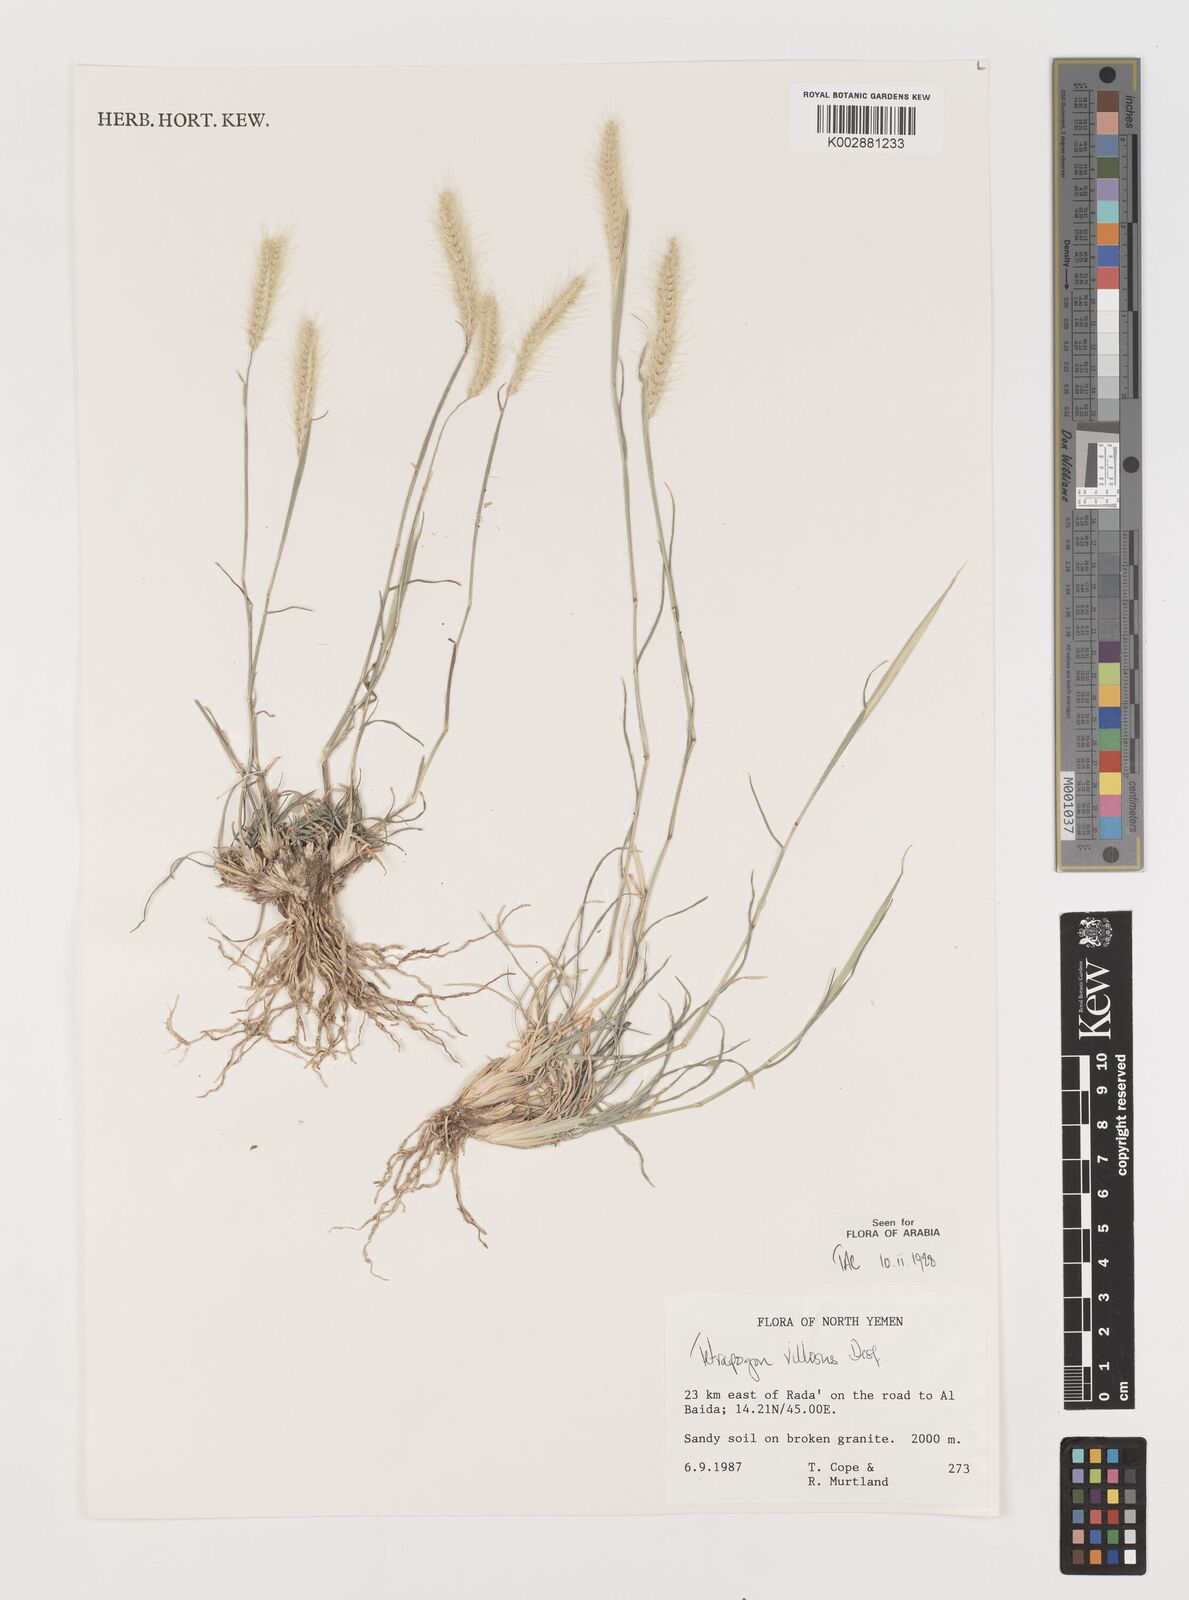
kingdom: Plantae
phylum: Tracheophyta
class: Liliopsida
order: Poales
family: Poaceae
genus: Tetrapogon
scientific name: Tetrapogon villosus
